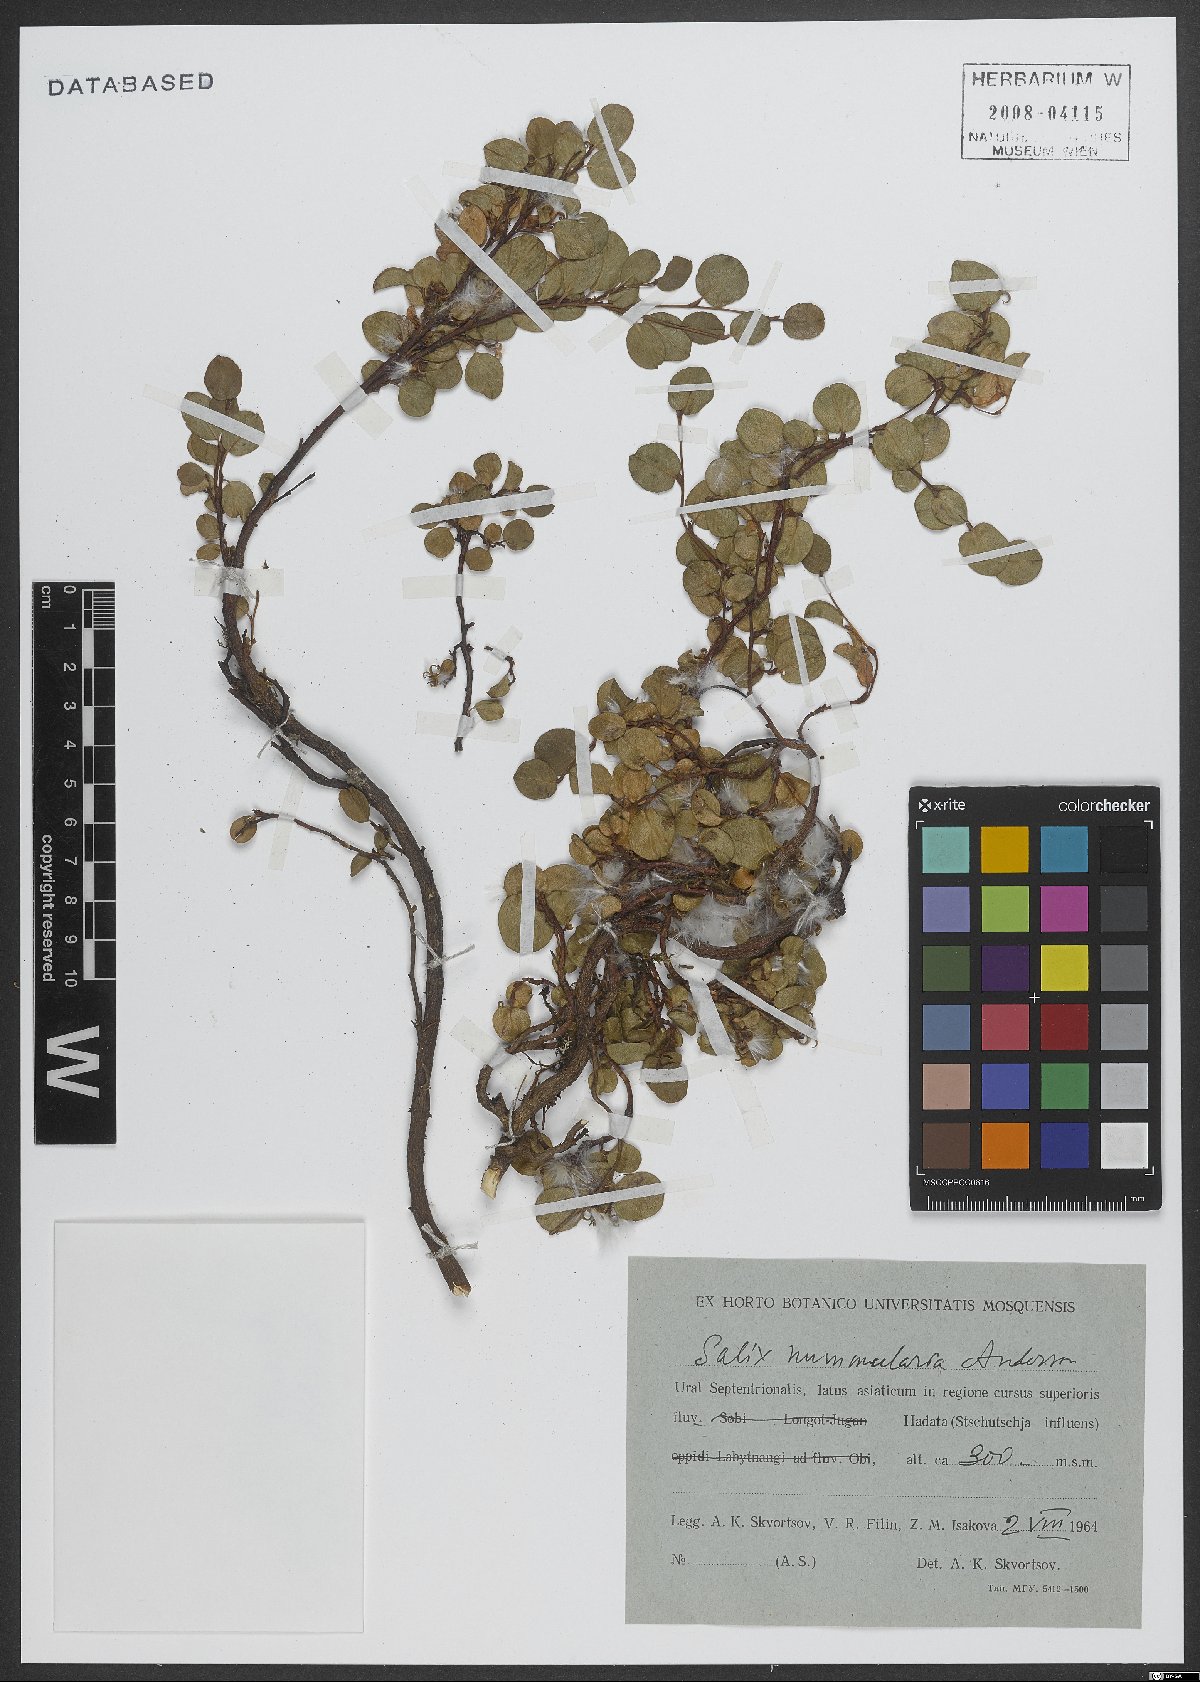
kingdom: Plantae
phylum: Tracheophyta
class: Magnoliopsida
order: Malpighiales
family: Salicaceae
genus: Salix
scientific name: Salix nummularia
